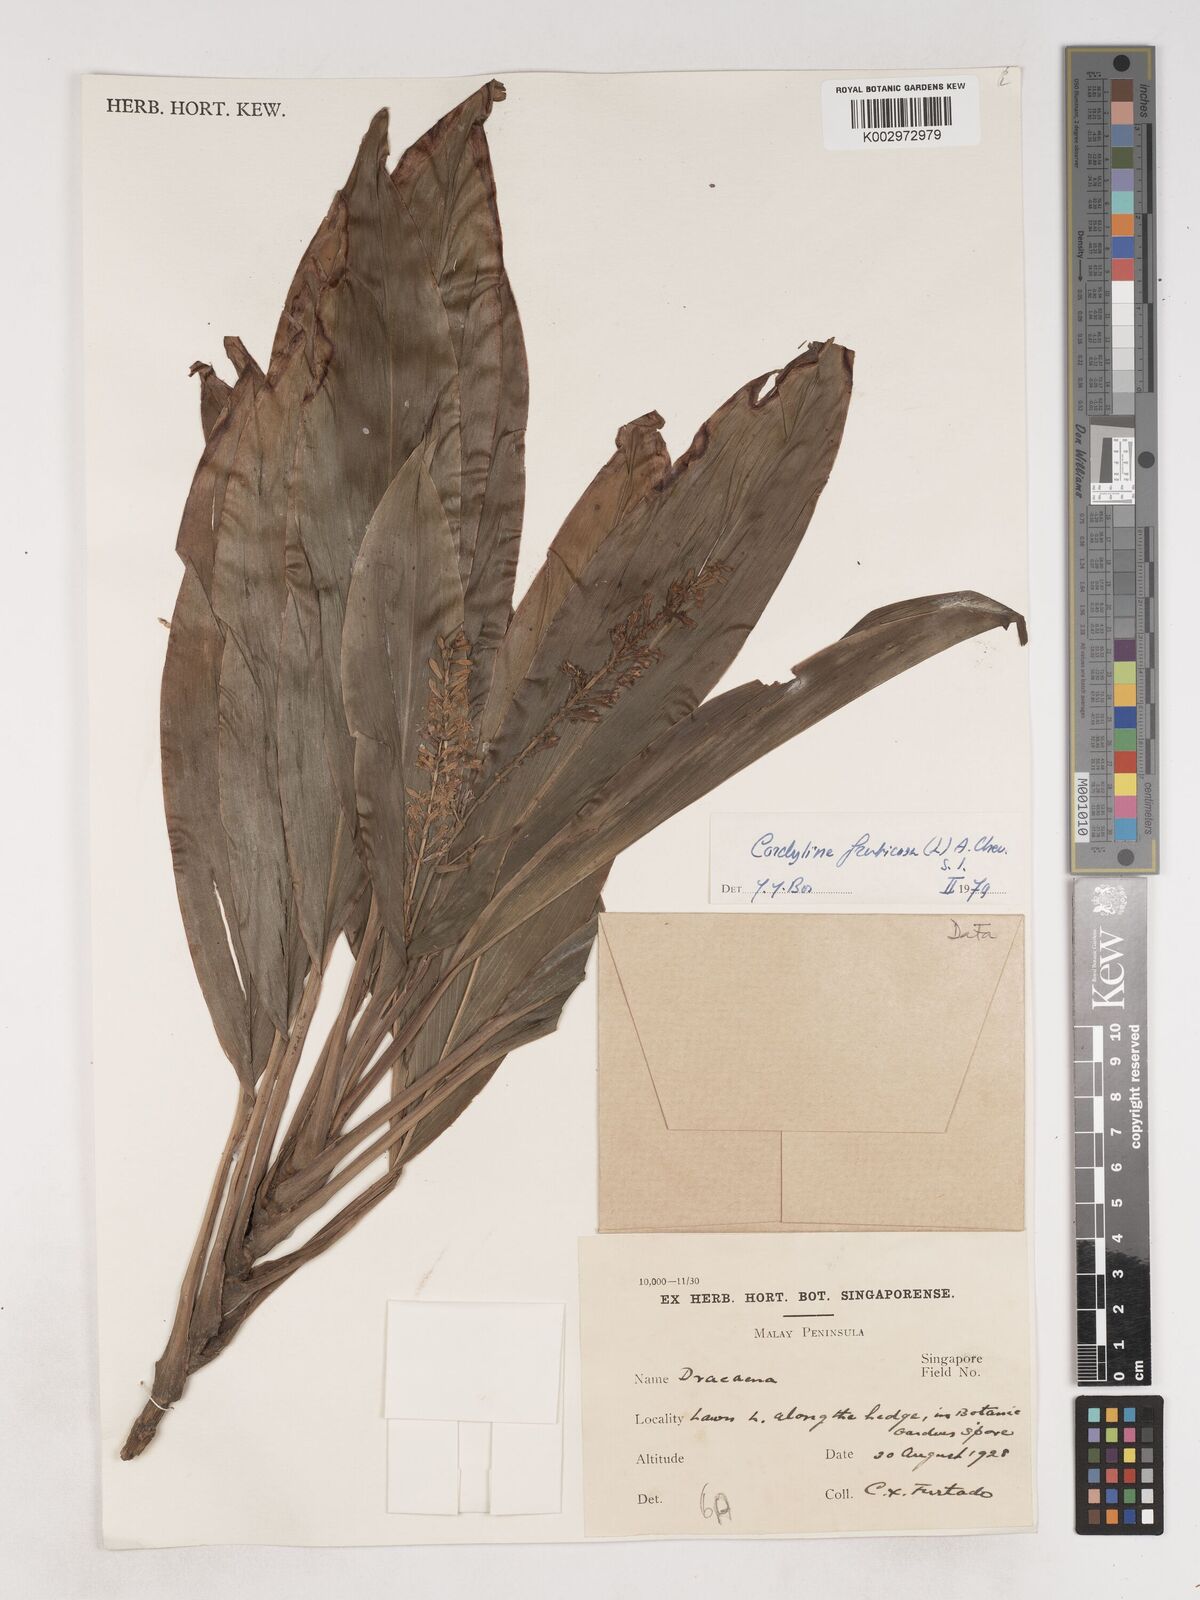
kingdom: Plantae
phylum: Tracheophyta
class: Liliopsida
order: Asparagales
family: Asparagaceae
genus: Cordyline
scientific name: Cordyline fruticosa
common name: Good-luck-plant
